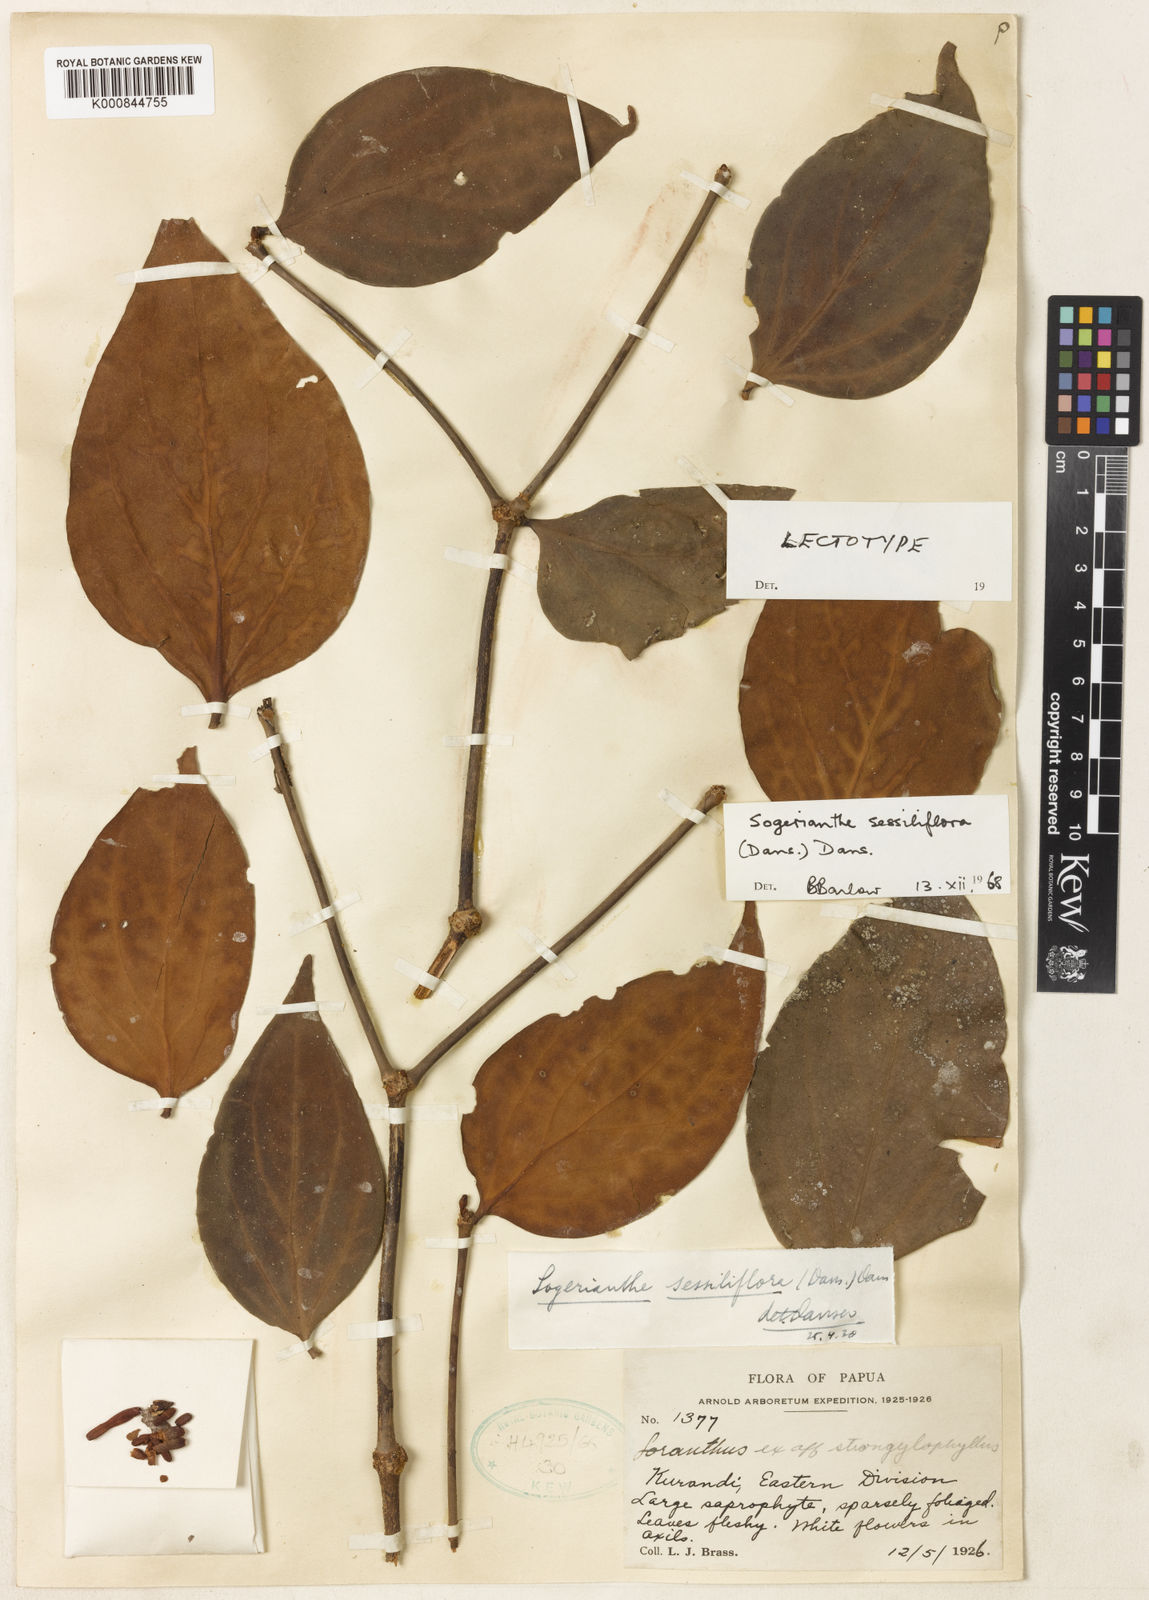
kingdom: Plantae
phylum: Tracheophyta
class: Magnoliopsida
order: Santalales
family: Loranthaceae
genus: Sogerianthe
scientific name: Sogerianthe sessiliflora
